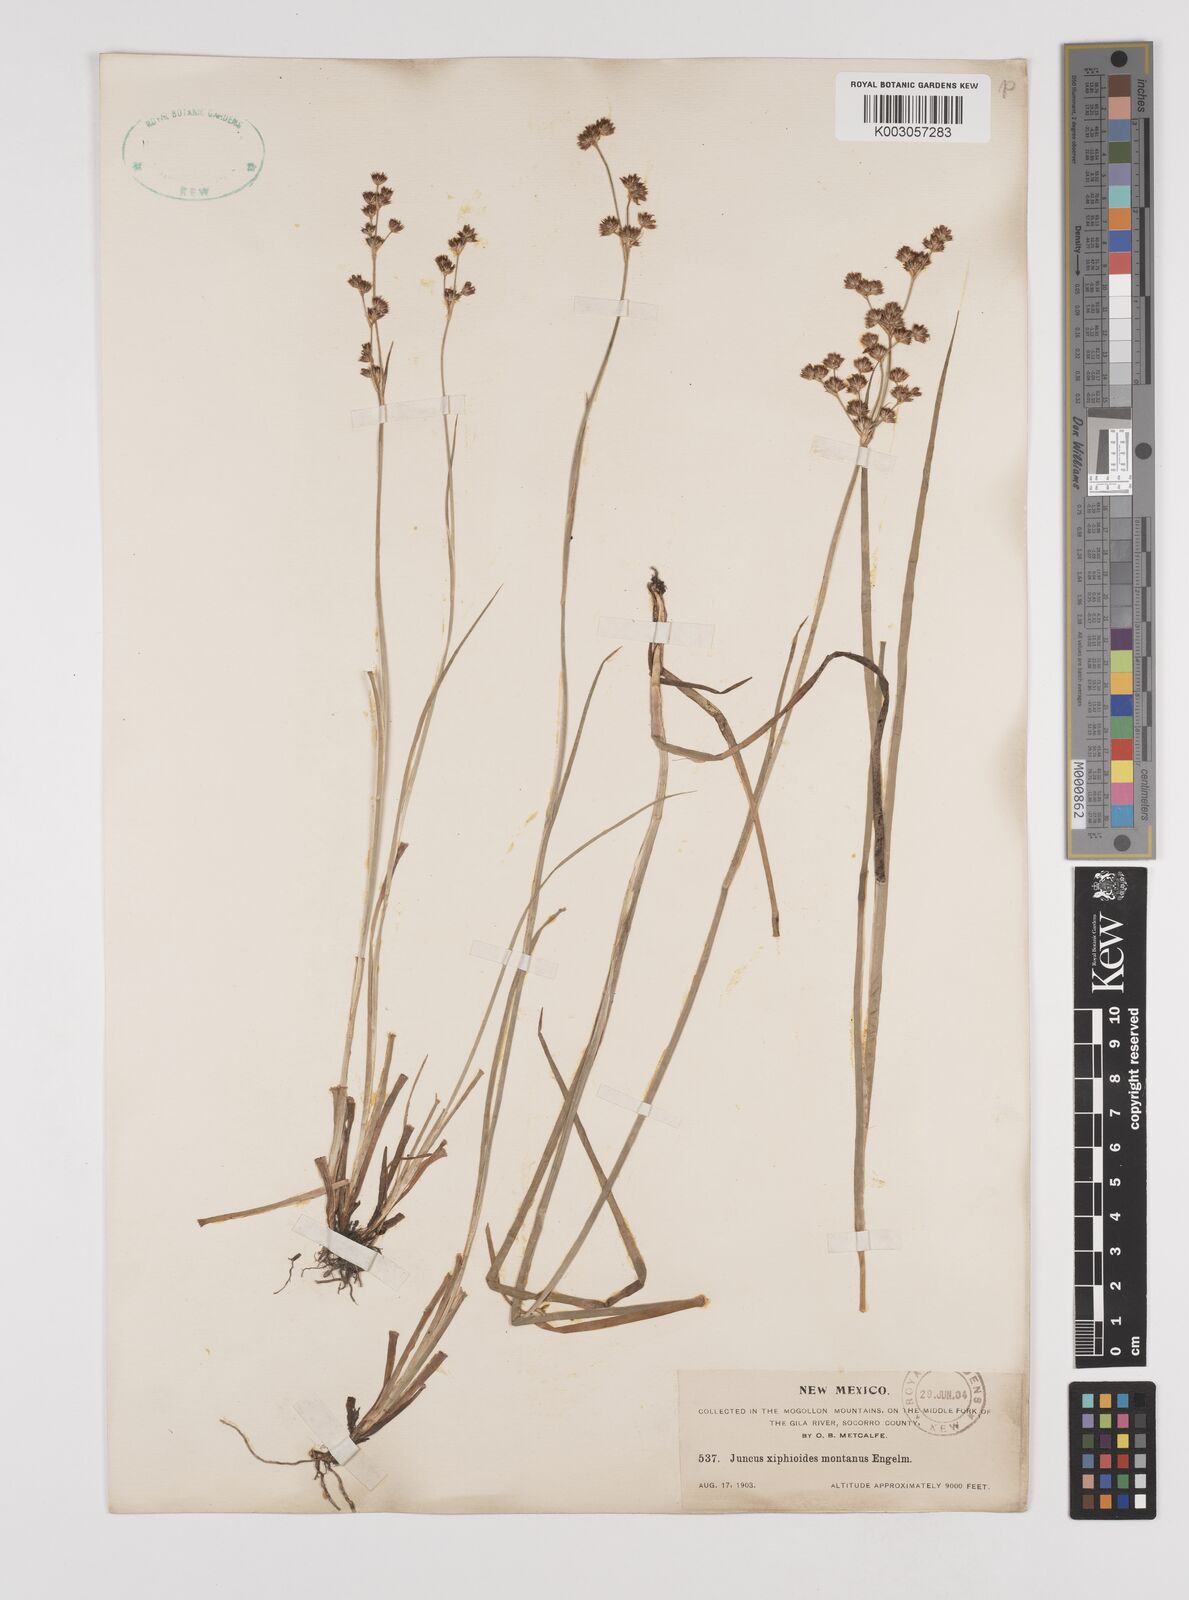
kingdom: Plantae
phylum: Tracheophyta
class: Liliopsida
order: Poales
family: Juncaceae
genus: Juncus
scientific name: Juncus saximontanus
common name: Rocky mountain rush
